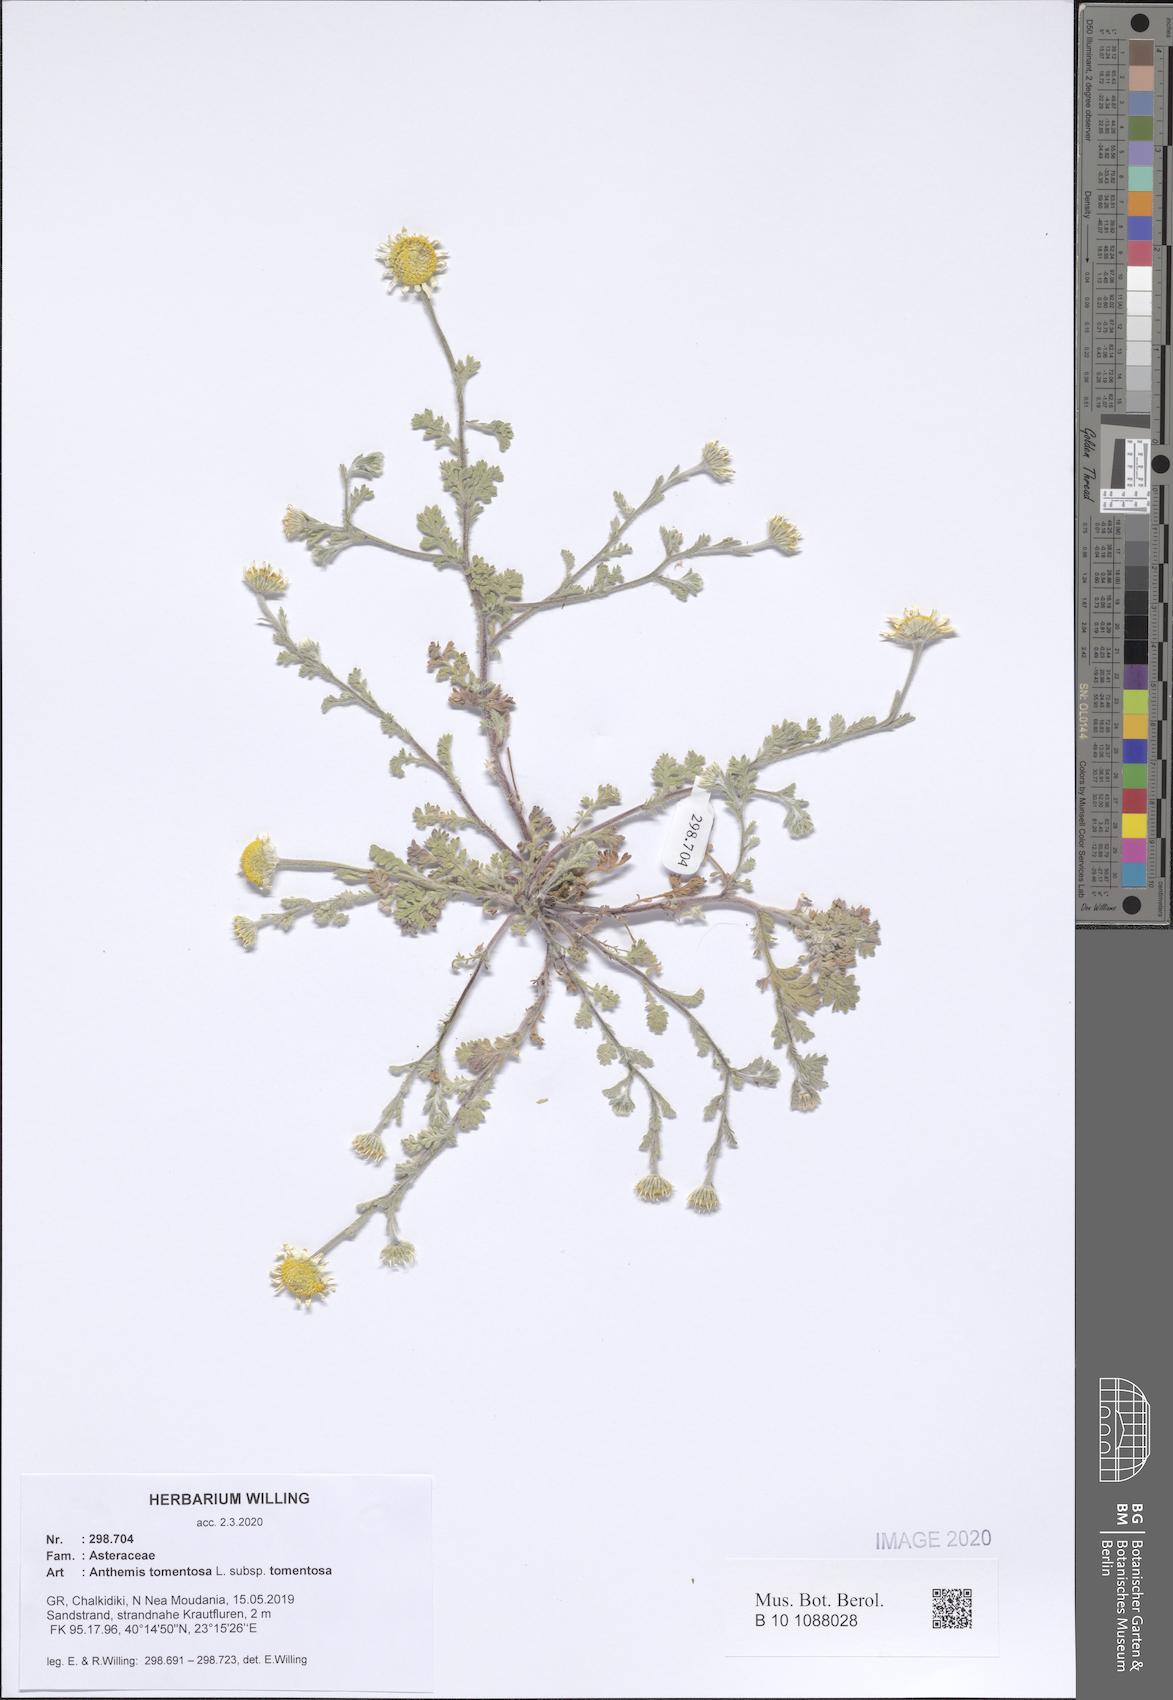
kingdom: Plantae
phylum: Tracheophyta
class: Magnoliopsida
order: Asterales
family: Asteraceae
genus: Anthemis
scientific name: Anthemis tomentosa
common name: Woolly chamomile
